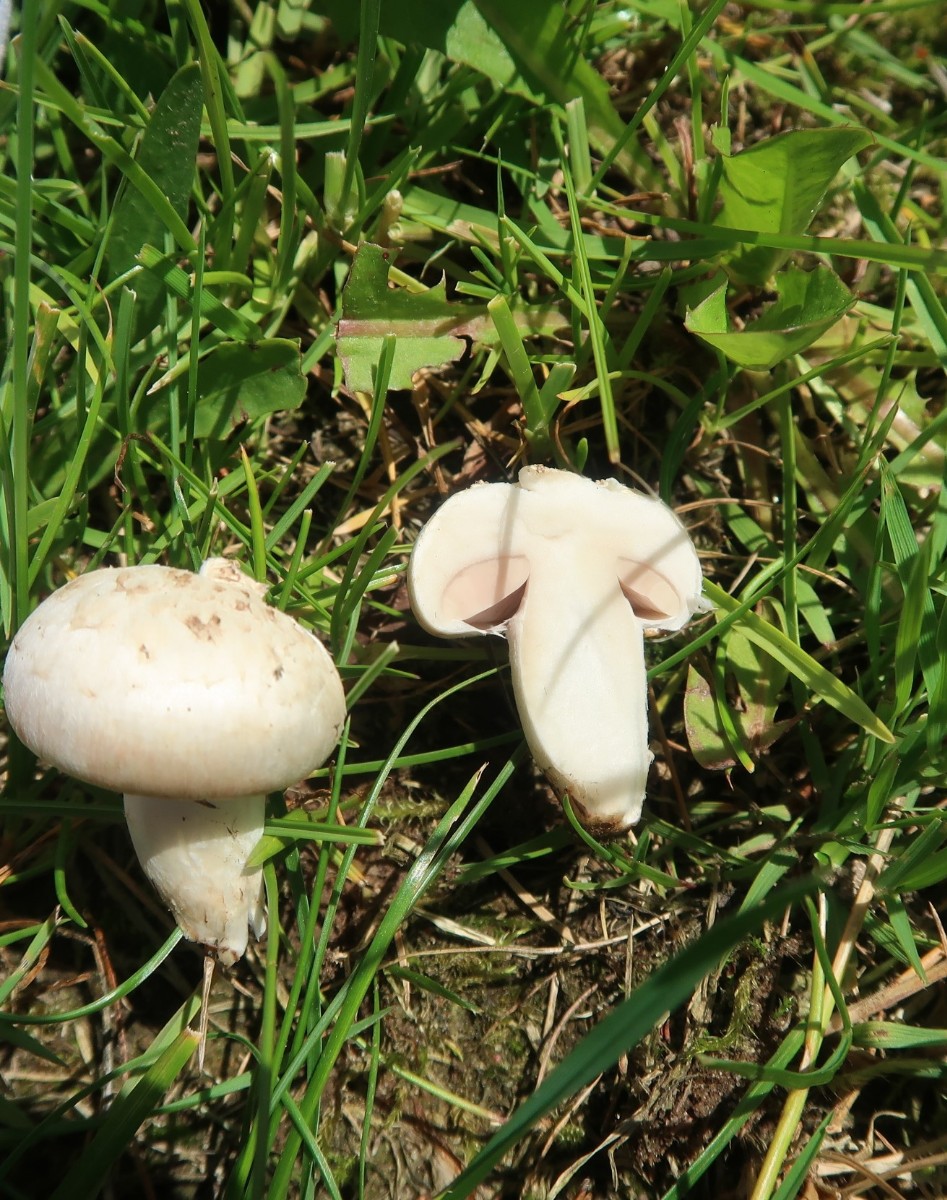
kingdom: Fungi
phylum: Basidiomycota
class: Agaricomycetes
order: Agaricales
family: Agaricaceae
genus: Agaricus
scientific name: Agaricus campestris
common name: mark-champignon
